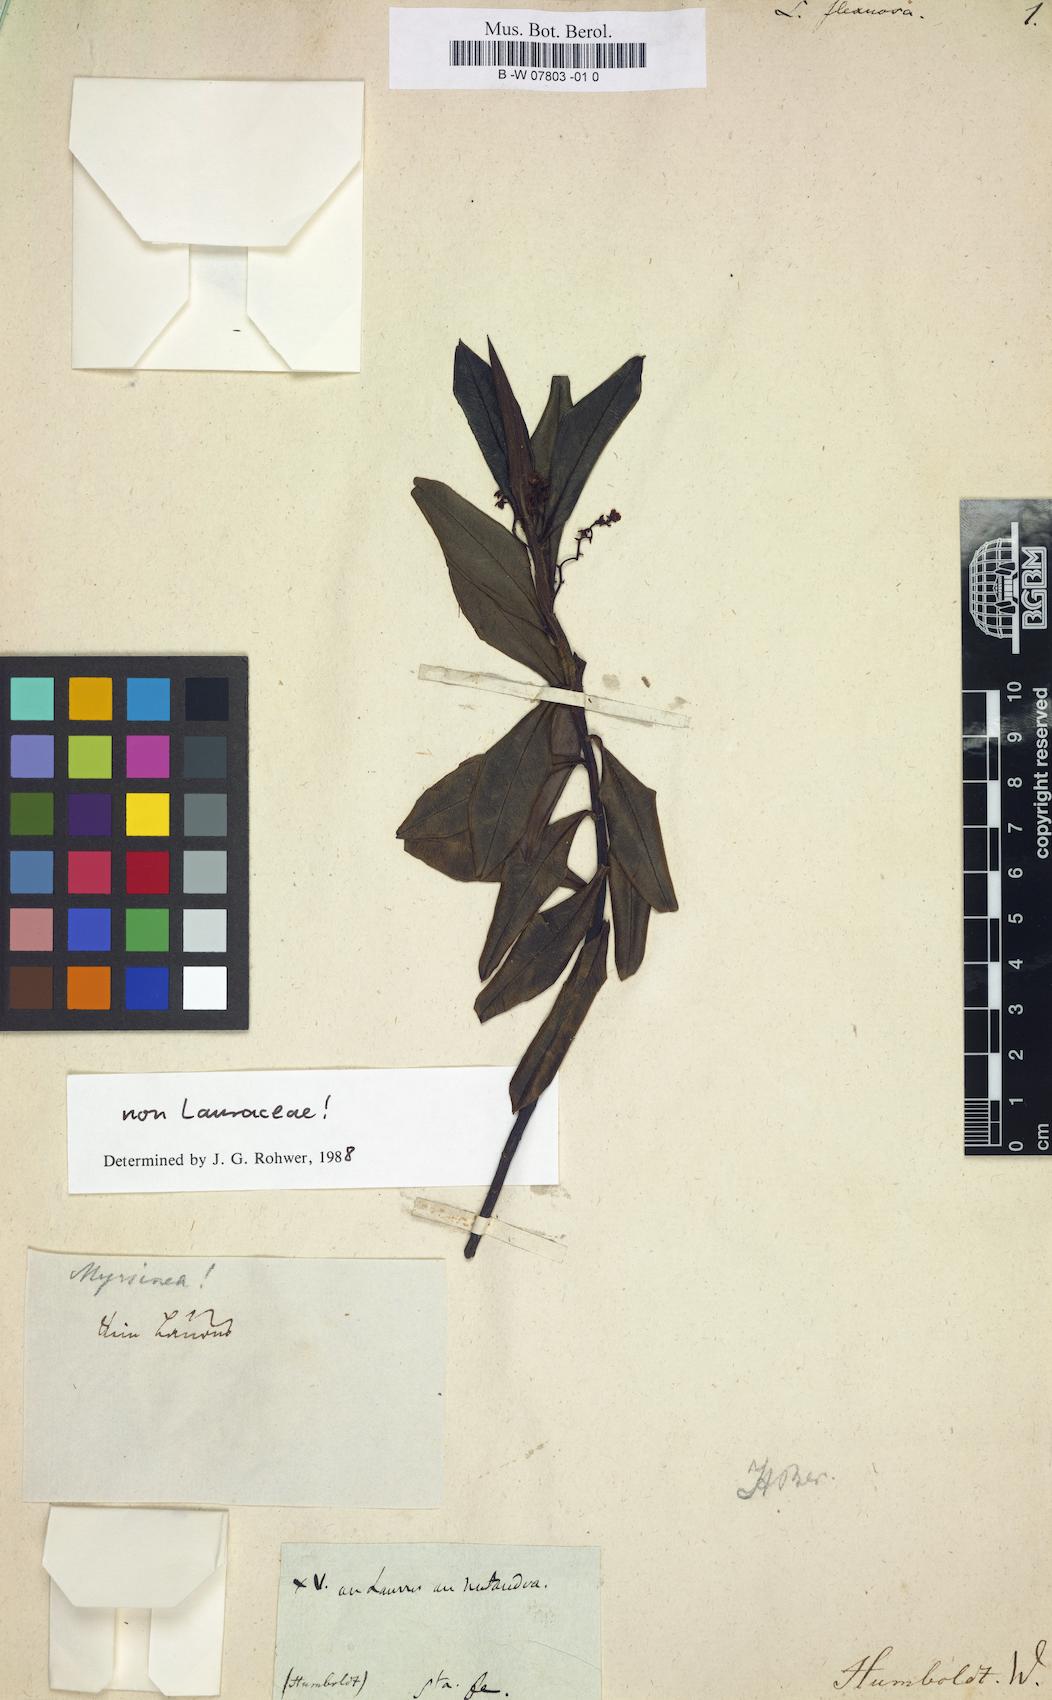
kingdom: Plantae
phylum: Tracheophyta
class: Magnoliopsida
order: Laurales
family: Lauraceae
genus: Laurus
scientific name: Laurus
